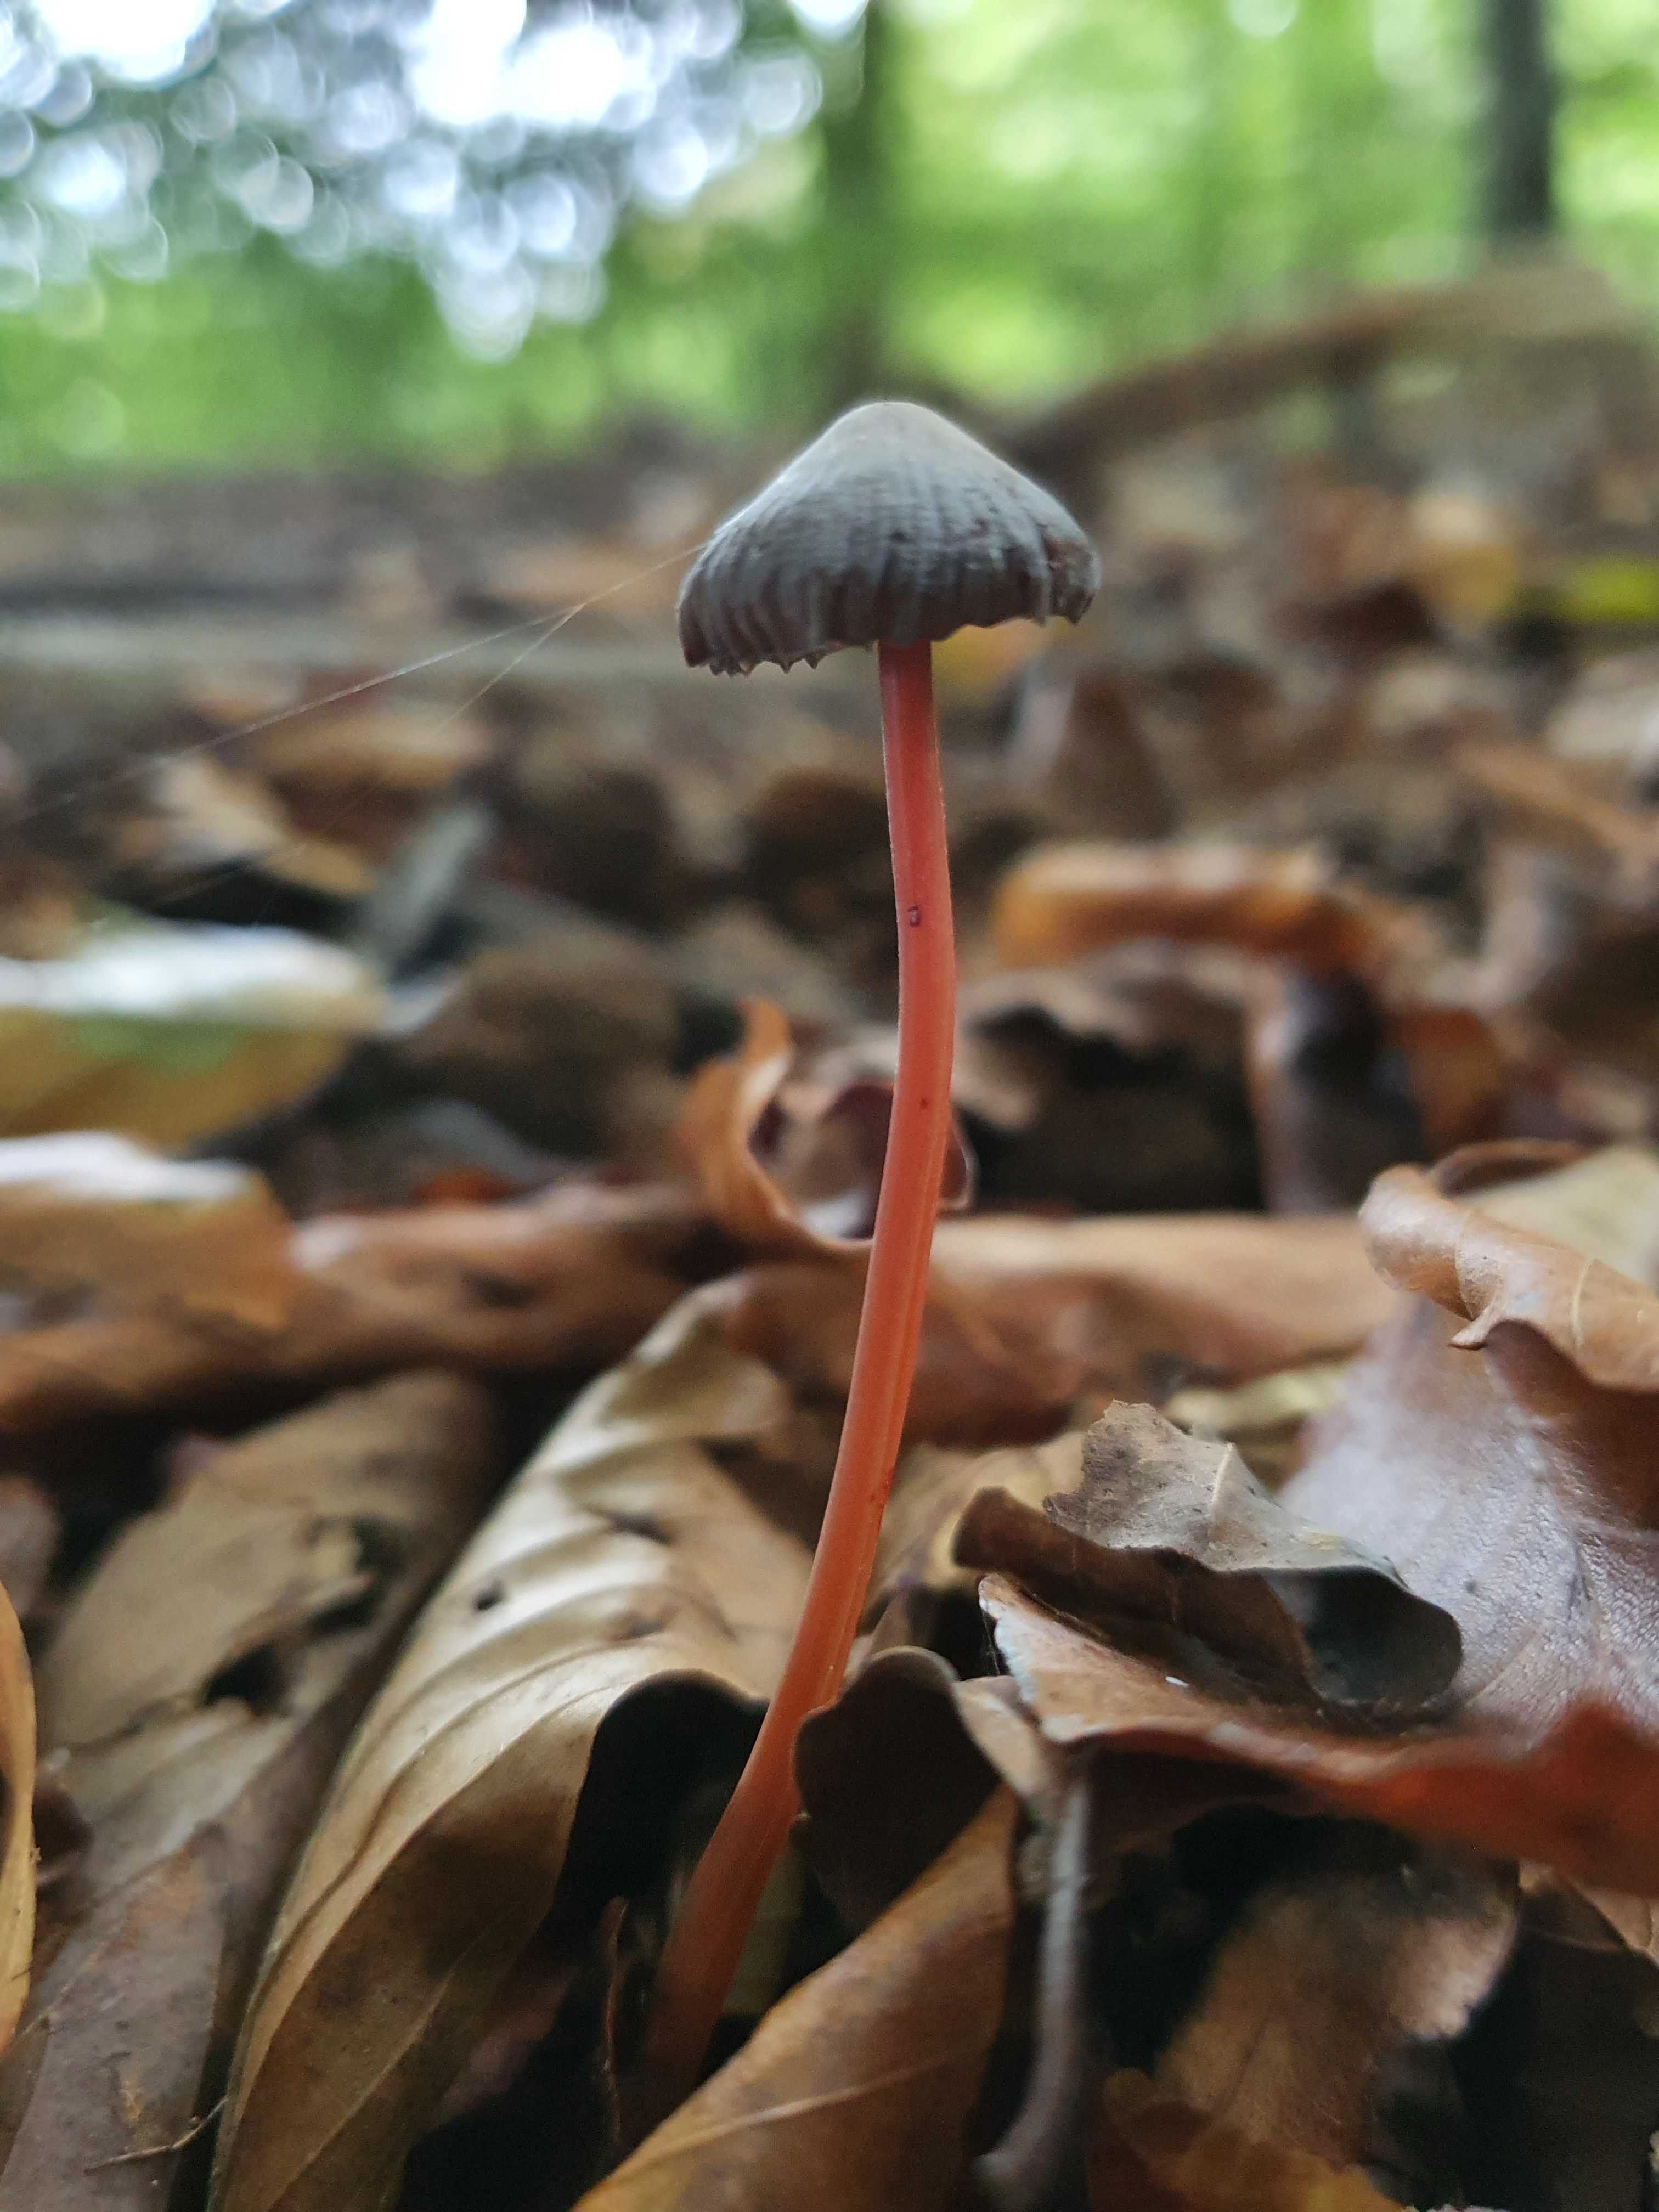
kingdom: Fungi
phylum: Basidiomycota
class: Agaricomycetes
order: Agaricales
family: Mycenaceae
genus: Mycena
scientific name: Mycena crocata
